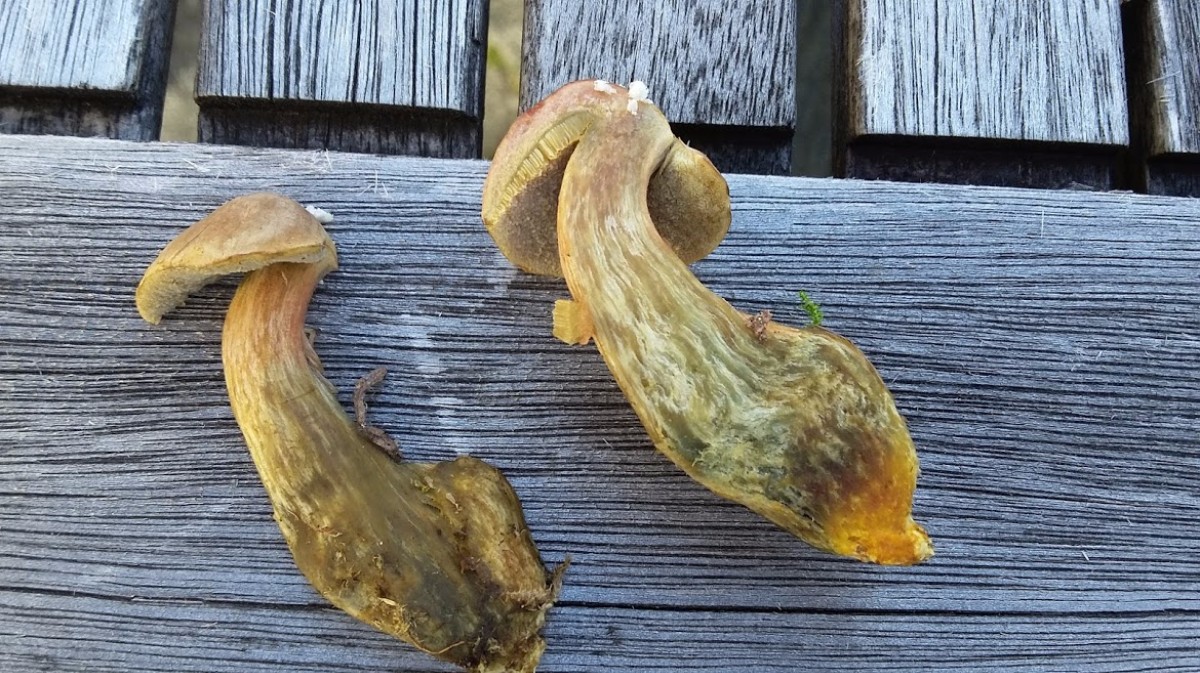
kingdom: Fungi
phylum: Basidiomycota
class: Agaricomycetes
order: Boletales
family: Boletaceae
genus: Hortiboletus
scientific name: Hortiboletus bubalinus
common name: aurora-rørhat
